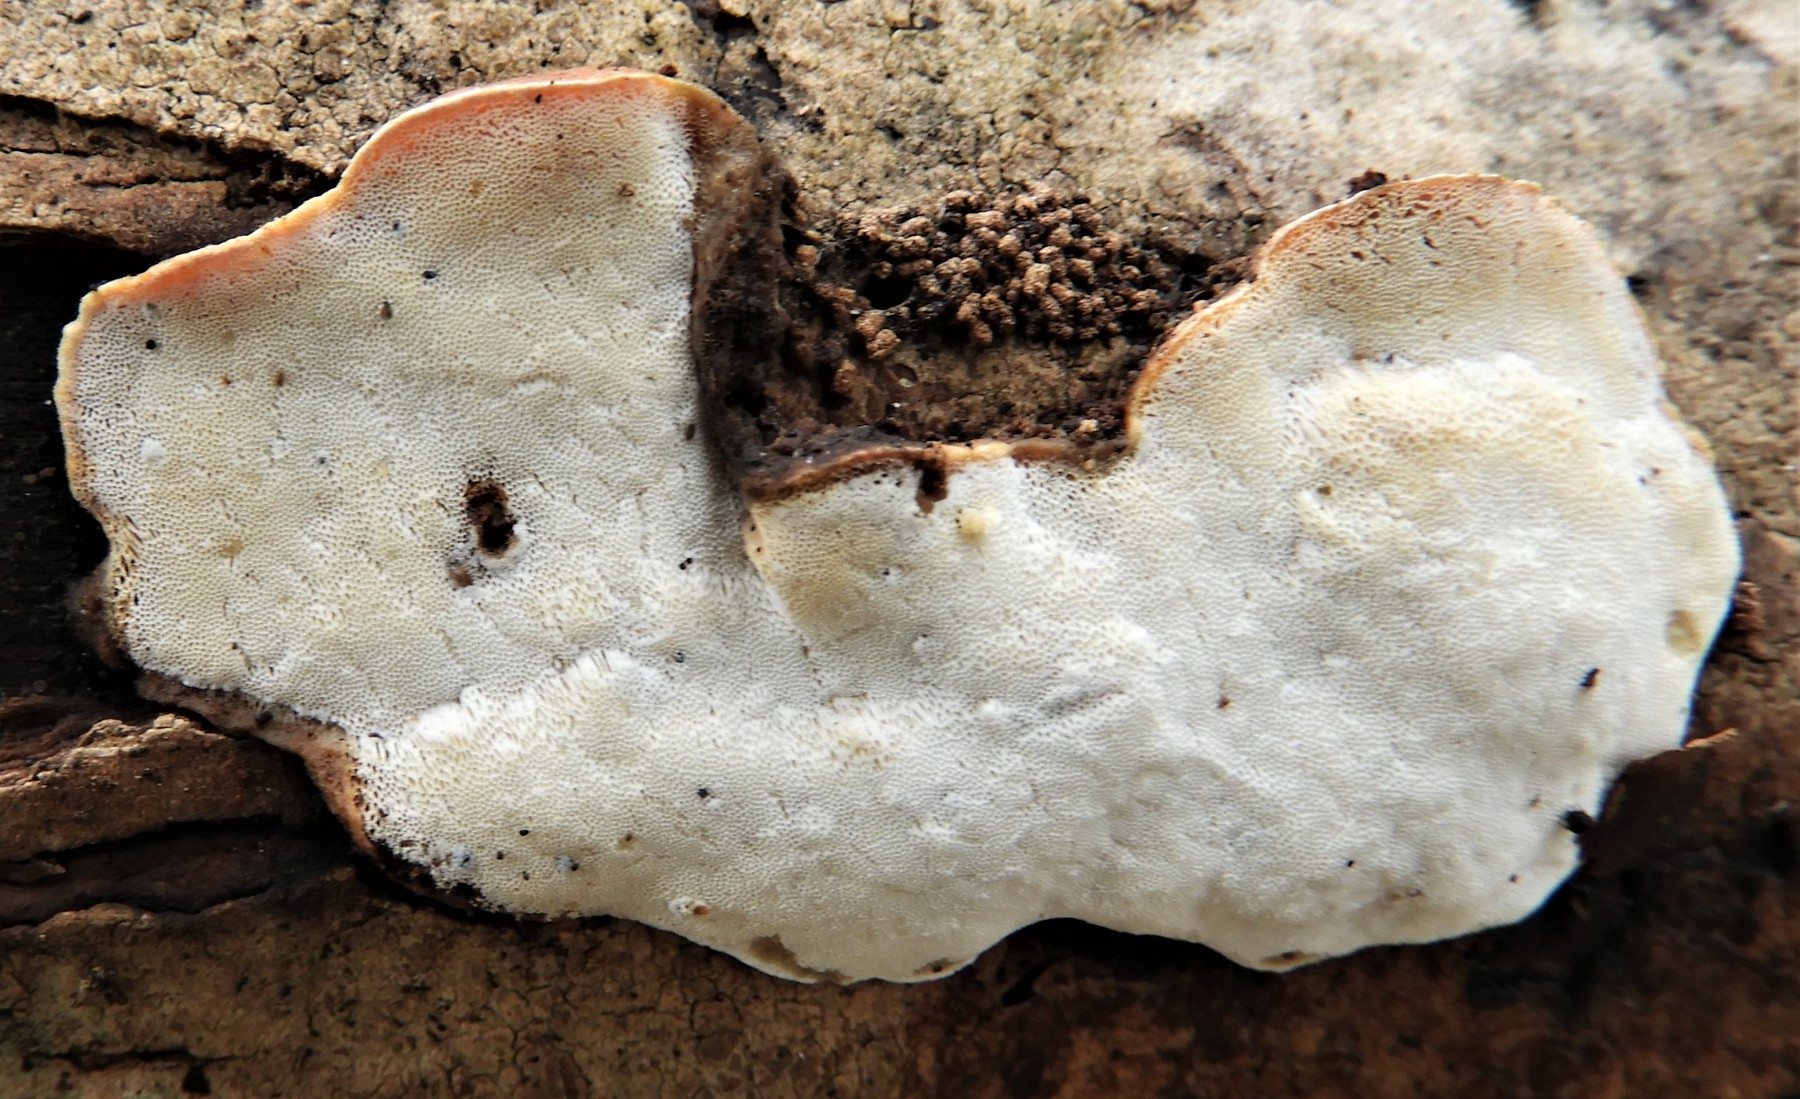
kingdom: Fungi
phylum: Basidiomycota
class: Agaricomycetes
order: Polyporales
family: Incrustoporiaceae
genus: Skeletocutis
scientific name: Skeletocutis nemoralis
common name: stor krystalporesvamp
